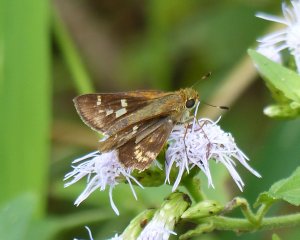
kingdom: Animalia
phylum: Arthropoda
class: Insecta
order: Lepidoptera
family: Hesperiidae
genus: Atalopedes
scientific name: Atalopedes campestris
